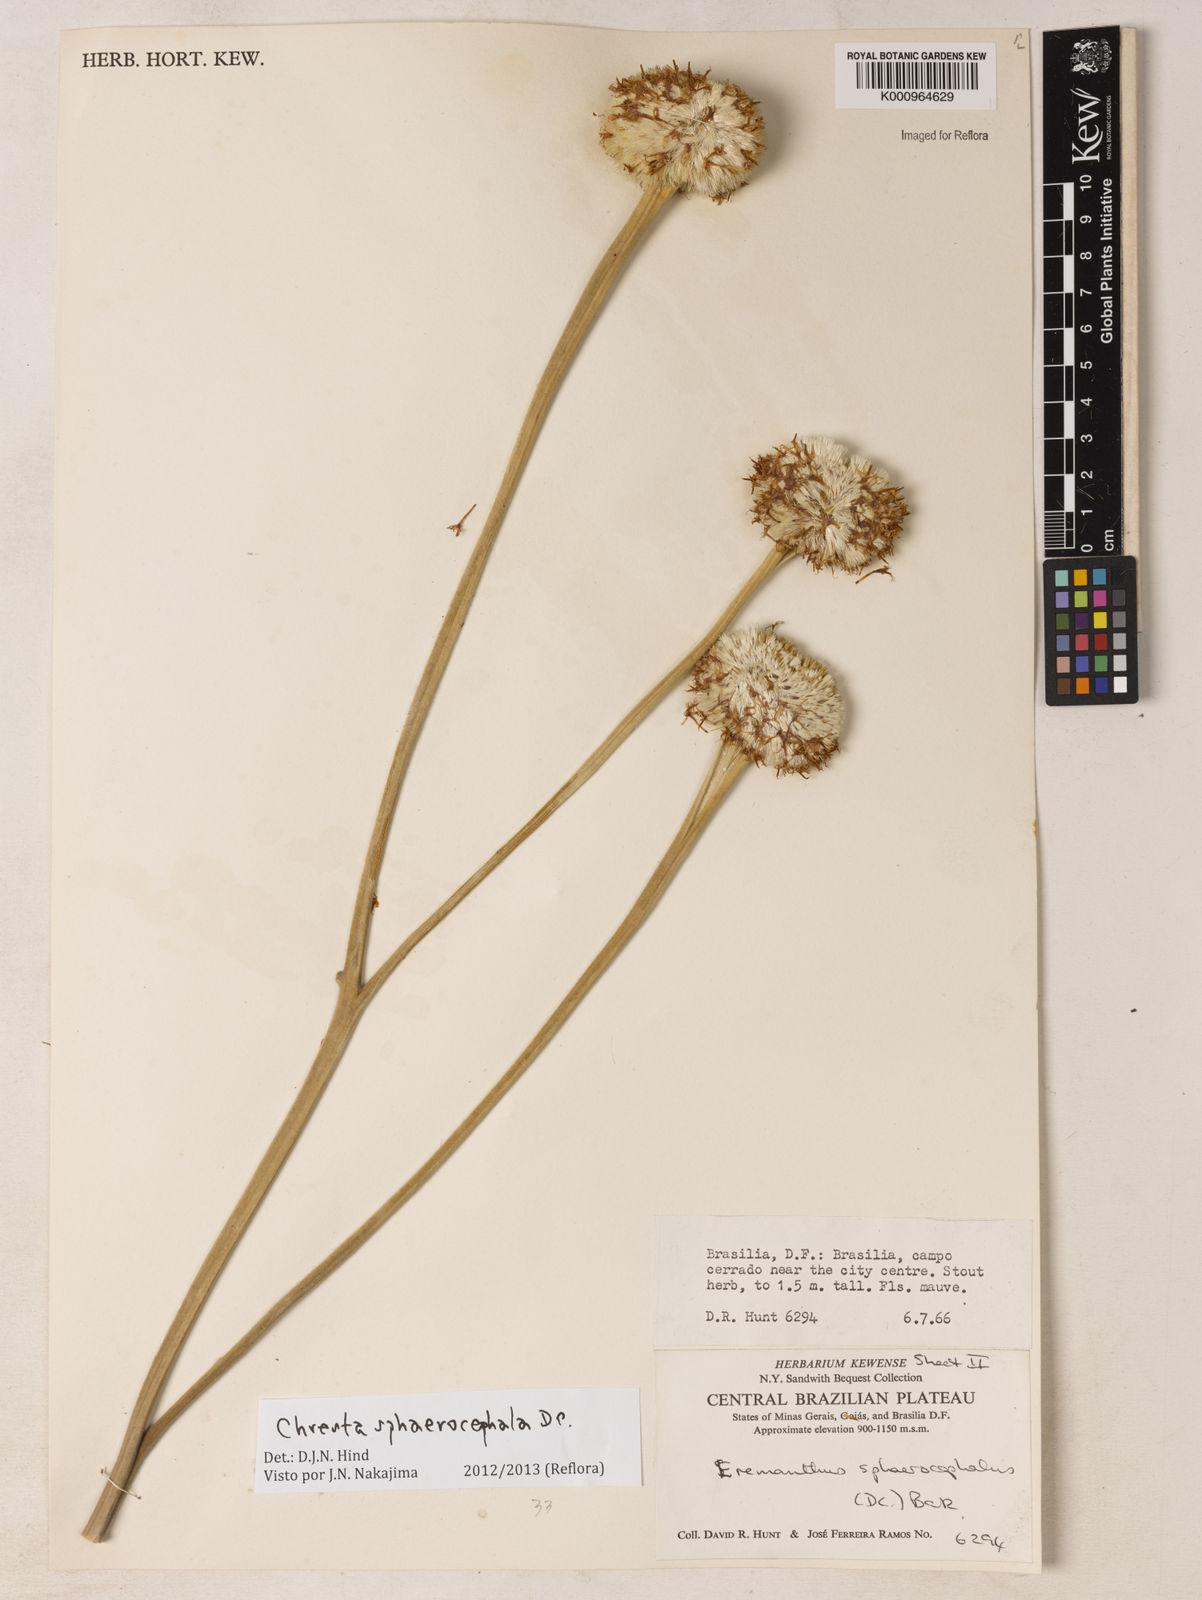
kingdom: Plantae
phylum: Tracheophyta
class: Magnoliopsida
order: Asterales
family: Asteraceae
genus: Chresta
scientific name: Chresta sphaerocephala
